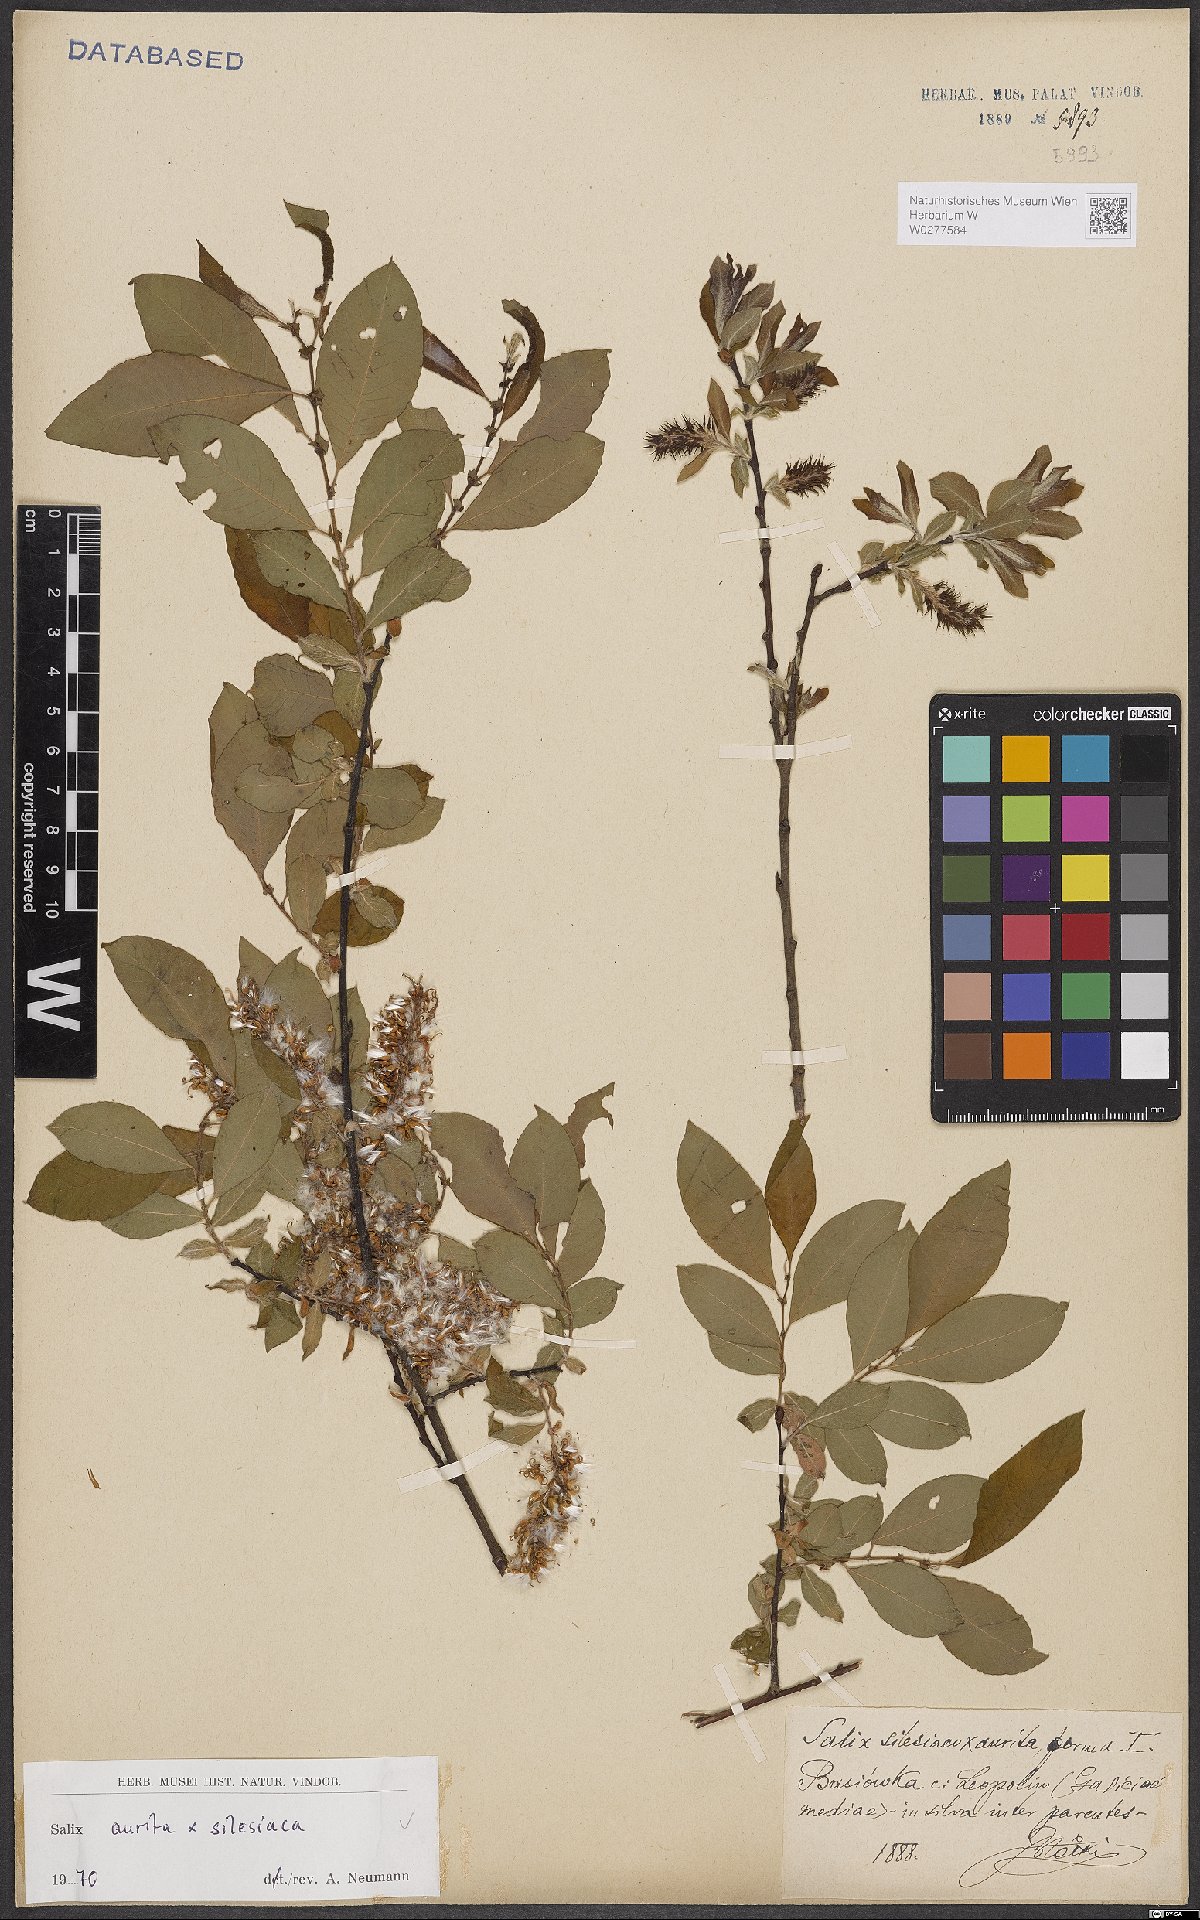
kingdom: Plantae
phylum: Tracheophyta
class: Magnoliopsida
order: Malpighiales
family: Salicaceae
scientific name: Salicaceae
